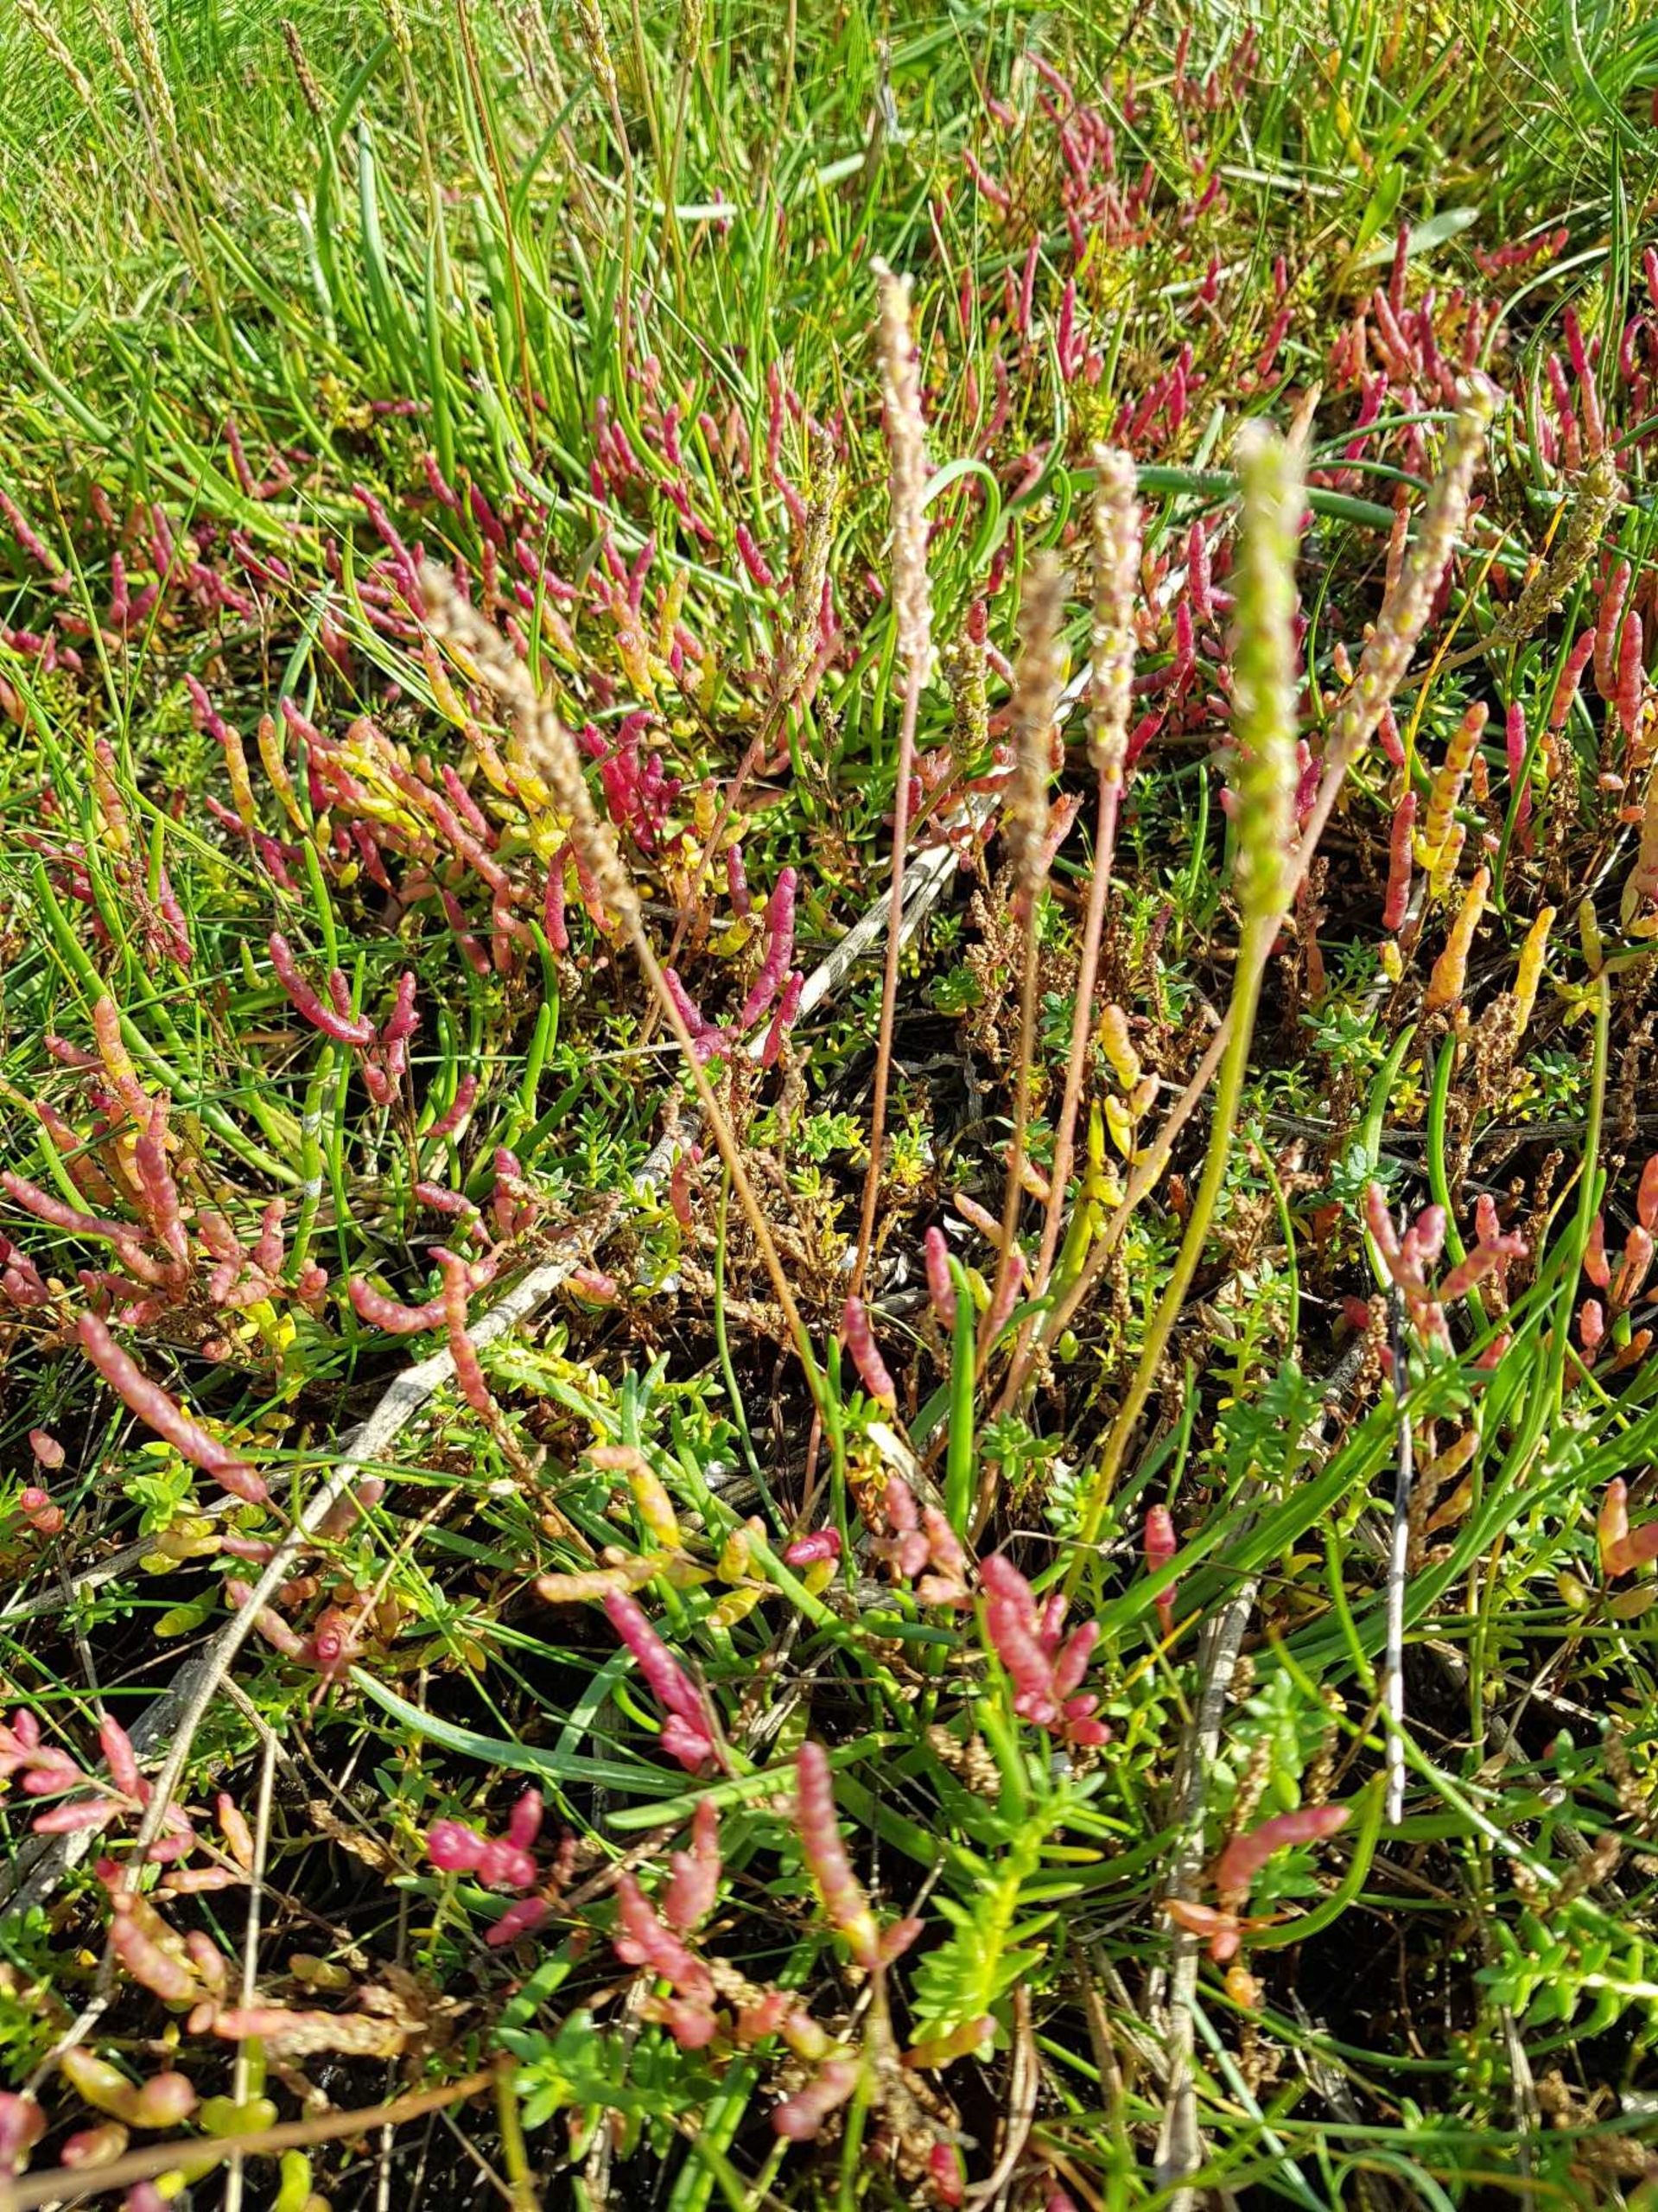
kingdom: Plantae
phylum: Tracheophyta
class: Magnoliopsida
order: Lamiales
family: Plantaginaceae
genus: Plantago
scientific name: Plantago maritima
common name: Strand-vejbred
